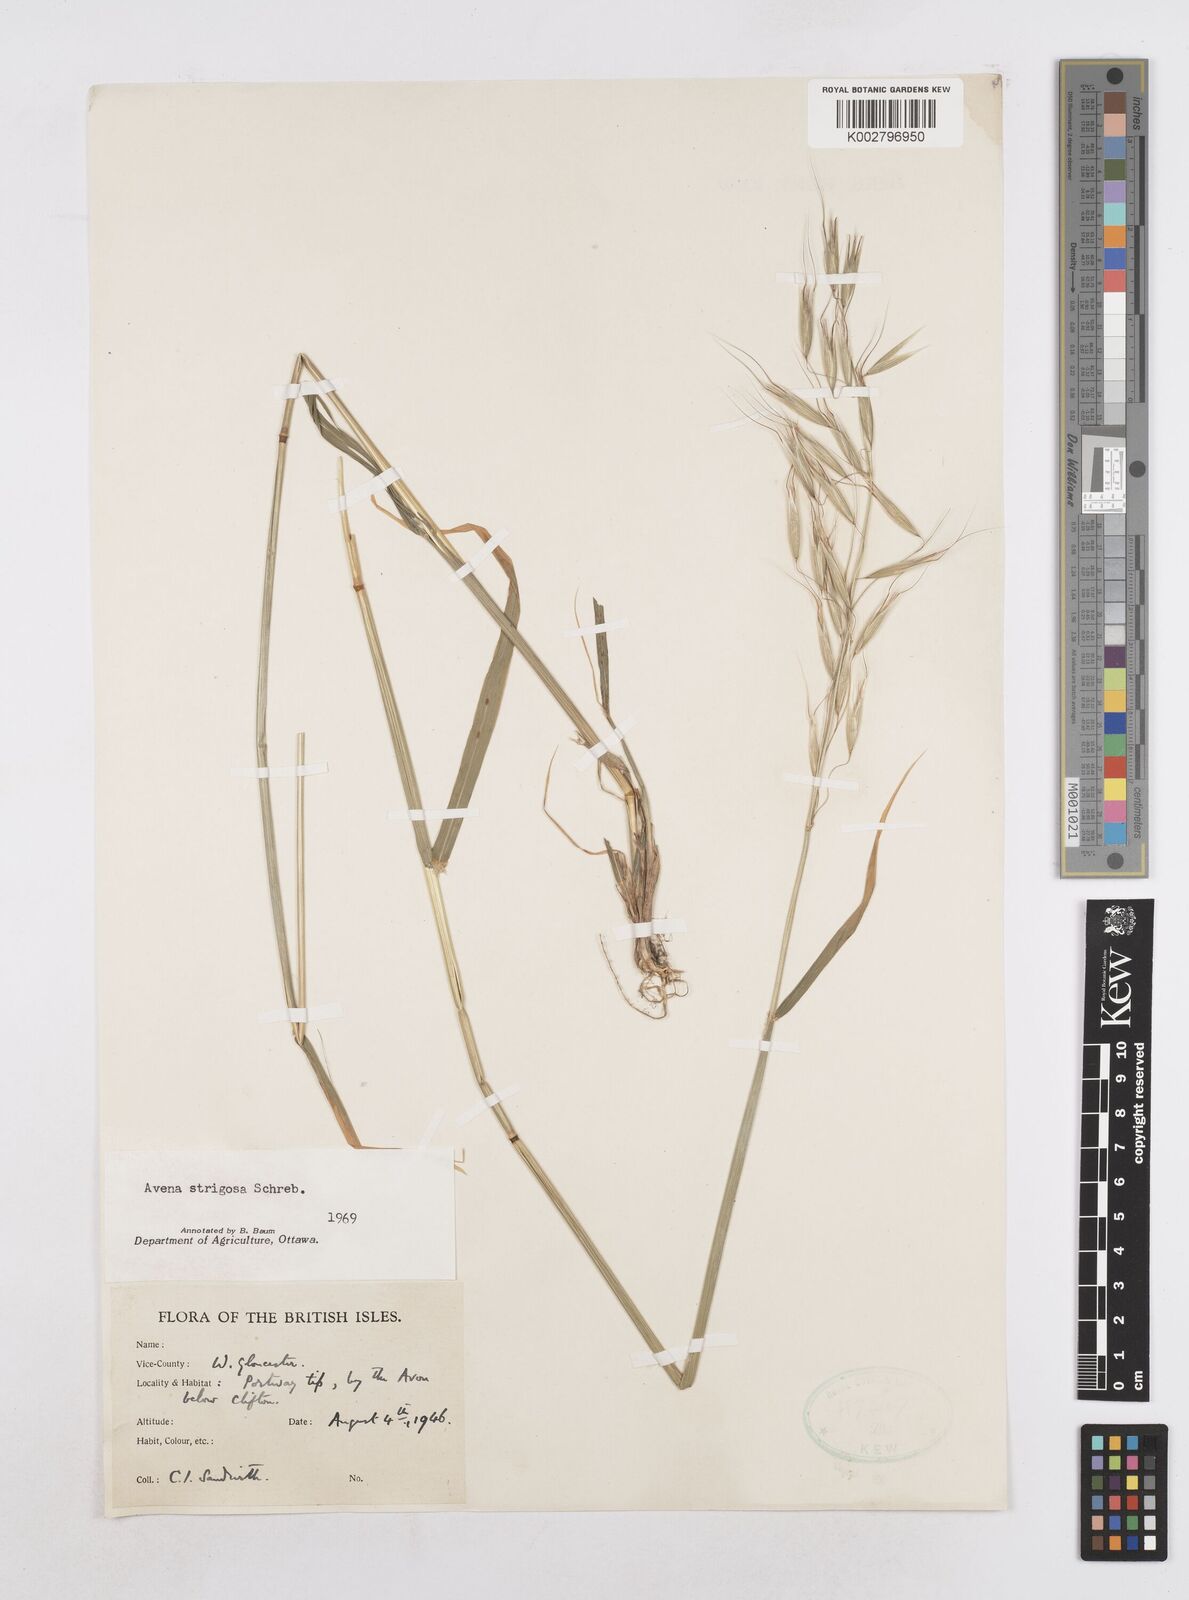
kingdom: Plantae
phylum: Tracheophyta
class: Liliopsida
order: Poales
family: Poaceae
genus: Avena
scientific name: Avena strigosa
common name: Bristle oat
